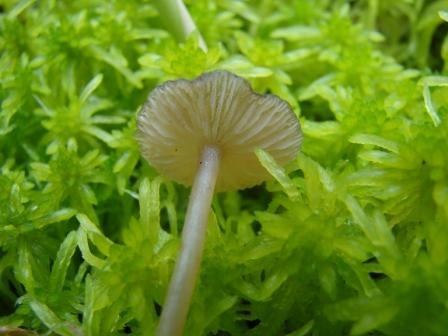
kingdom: Fungi
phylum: Basidiomycota
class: Agaricomycetes
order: Agaricales
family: Lyophyllaceae
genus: Sphagnurus
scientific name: Sphagnurus paluster
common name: tørvemos-gråblad
